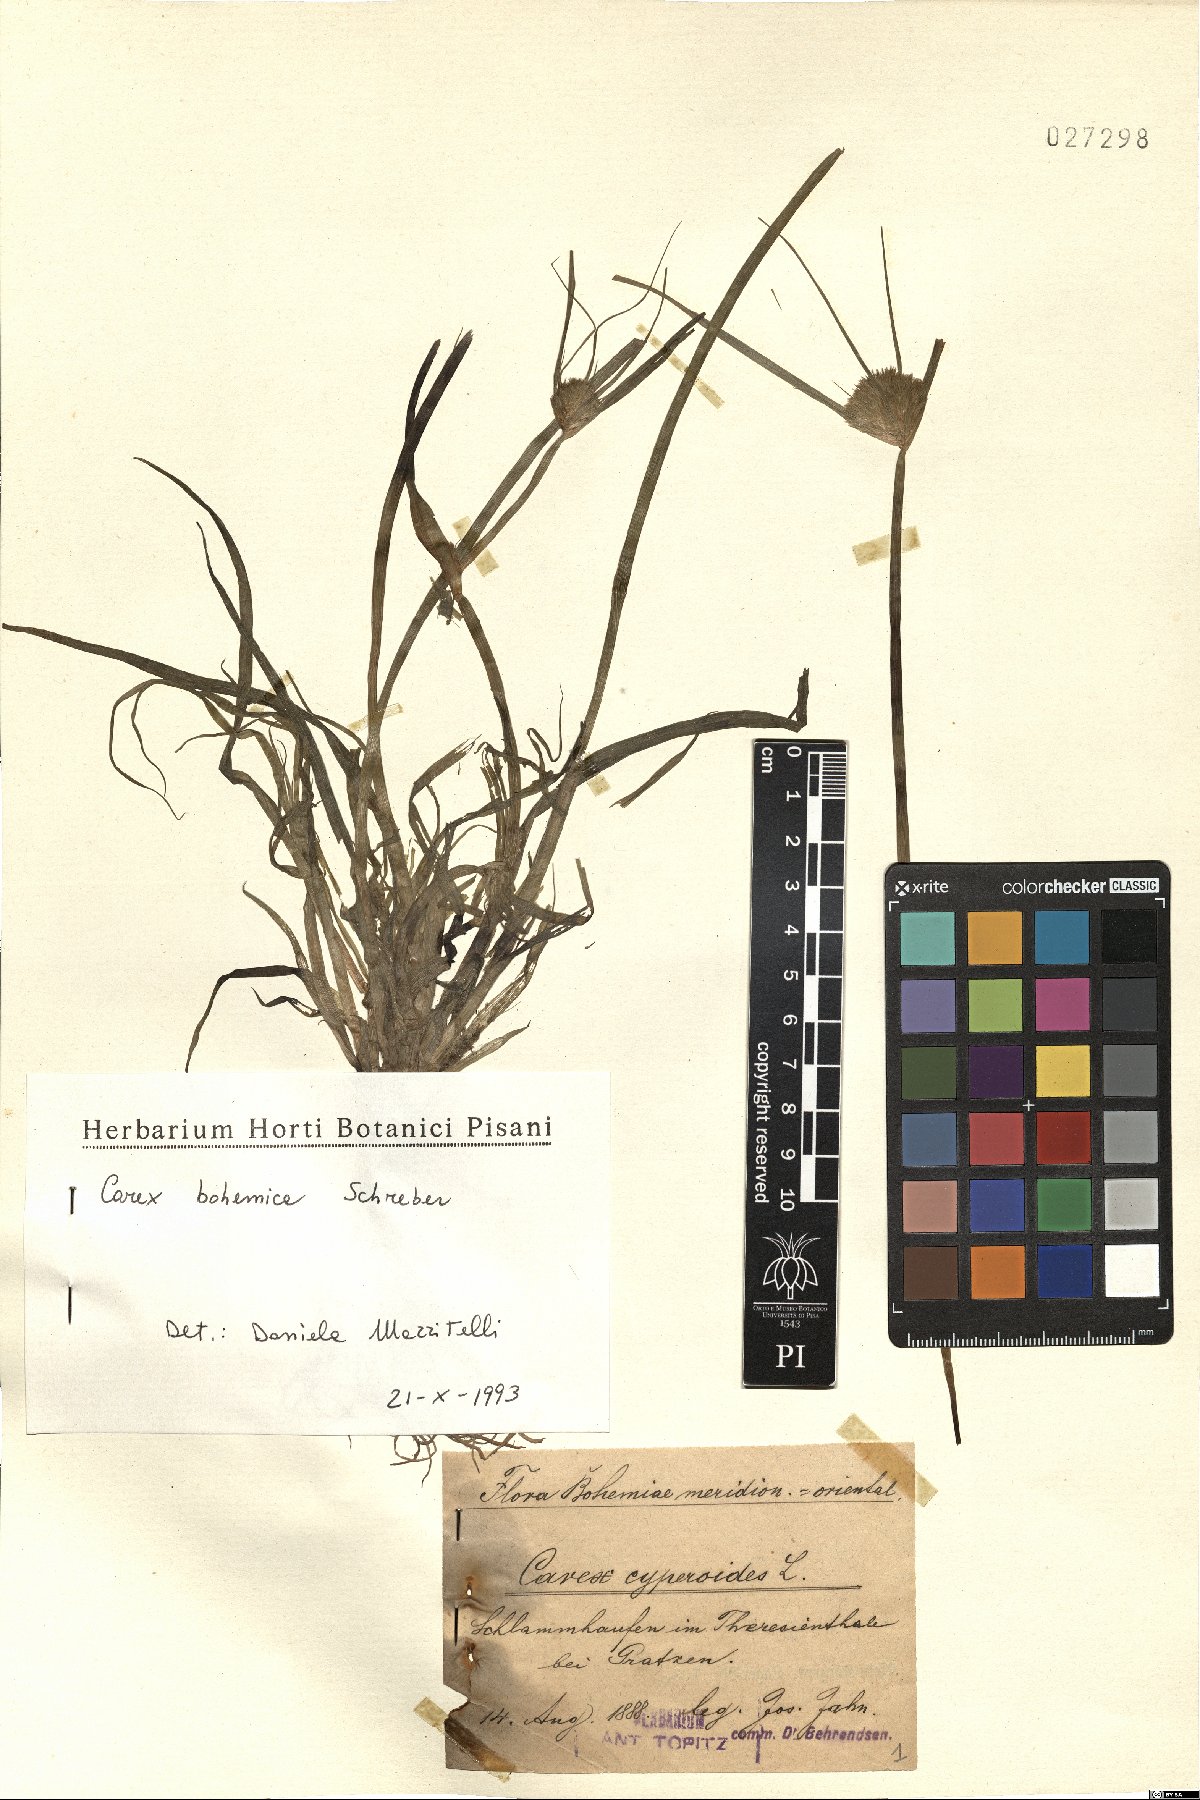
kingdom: Plantae
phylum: Tracheophyta
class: Liliopsida
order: Poales
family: Cyperaceae
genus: Carex
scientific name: Carex bohemica
